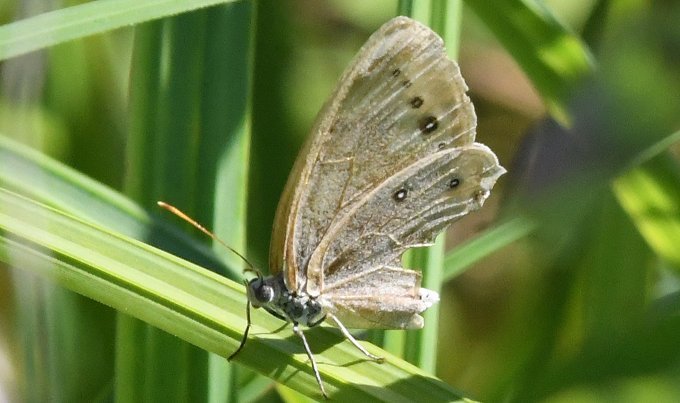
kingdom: Animalia
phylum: Arthropoda
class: Insecta
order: Lepidoptera
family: Nymphalidae
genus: Lethe
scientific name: Lethe eurydice
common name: Eyed Brown
